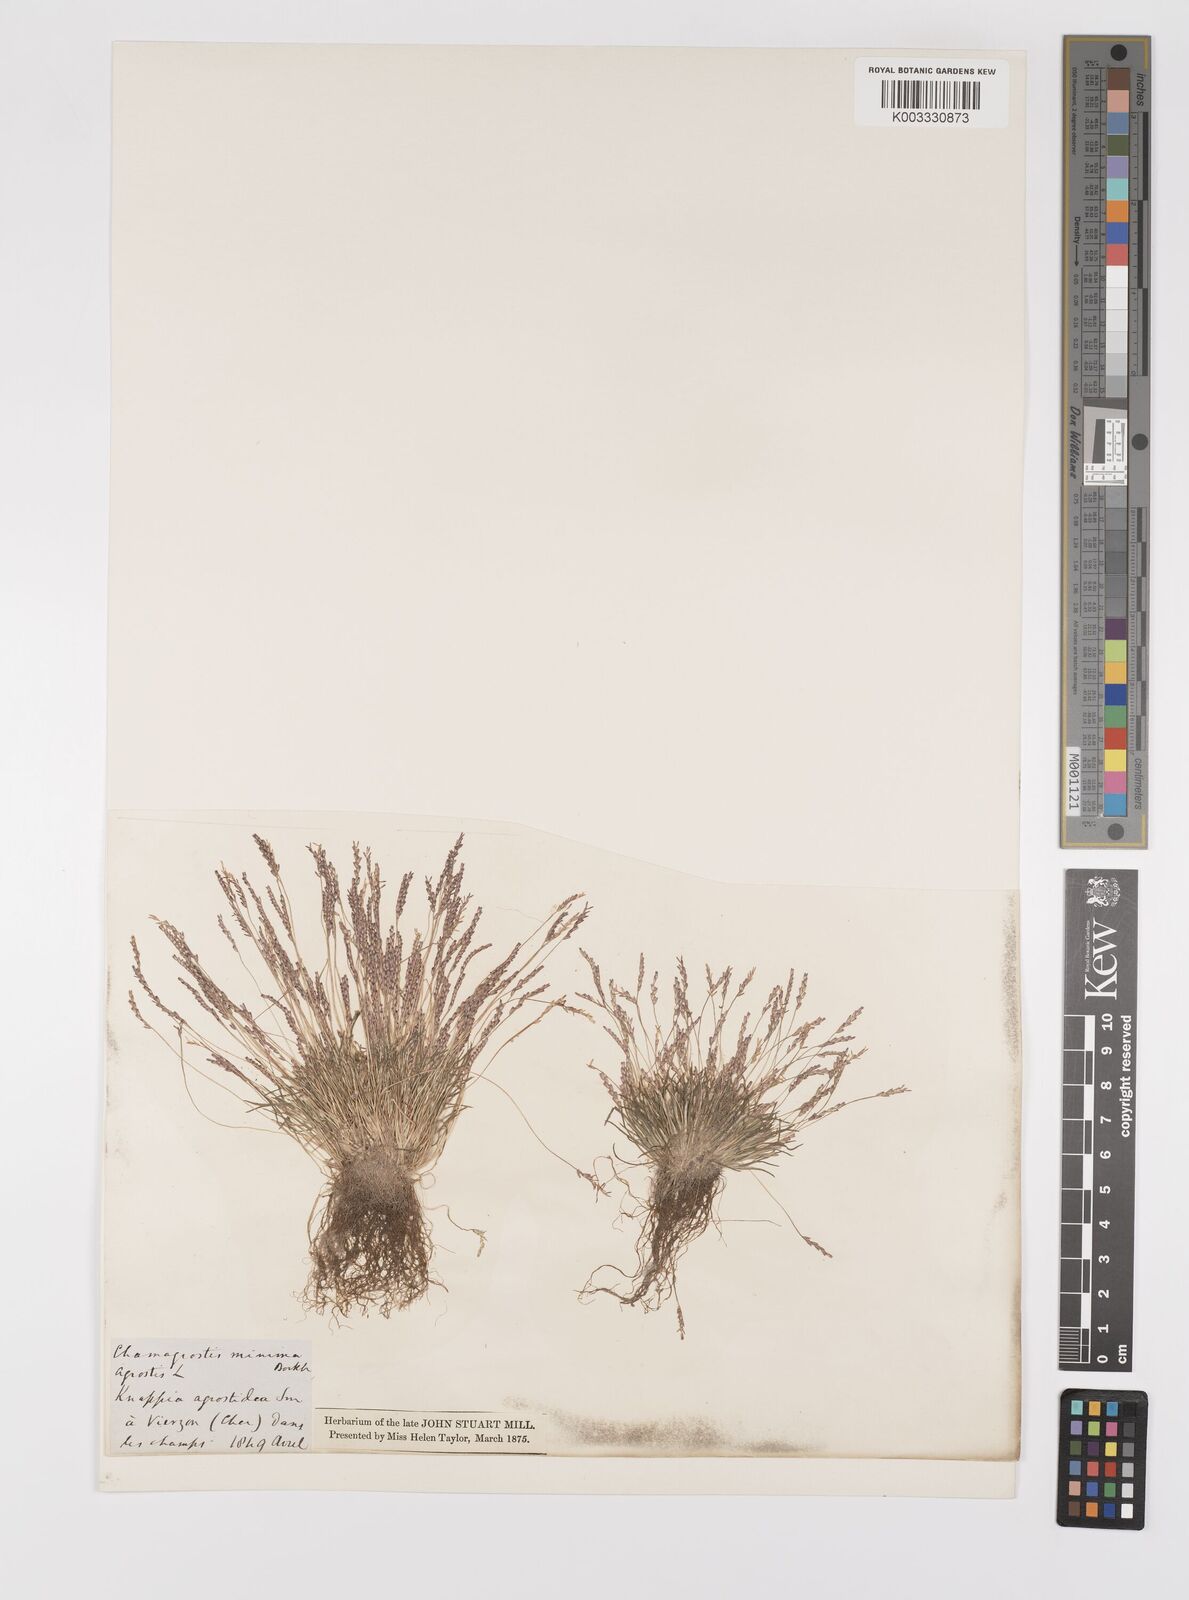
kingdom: Plantae
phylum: Tracheophyta
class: Liliopsida
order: Poales
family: Poaceae
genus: Mibora
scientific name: Mibora minima
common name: Early sand-grass
